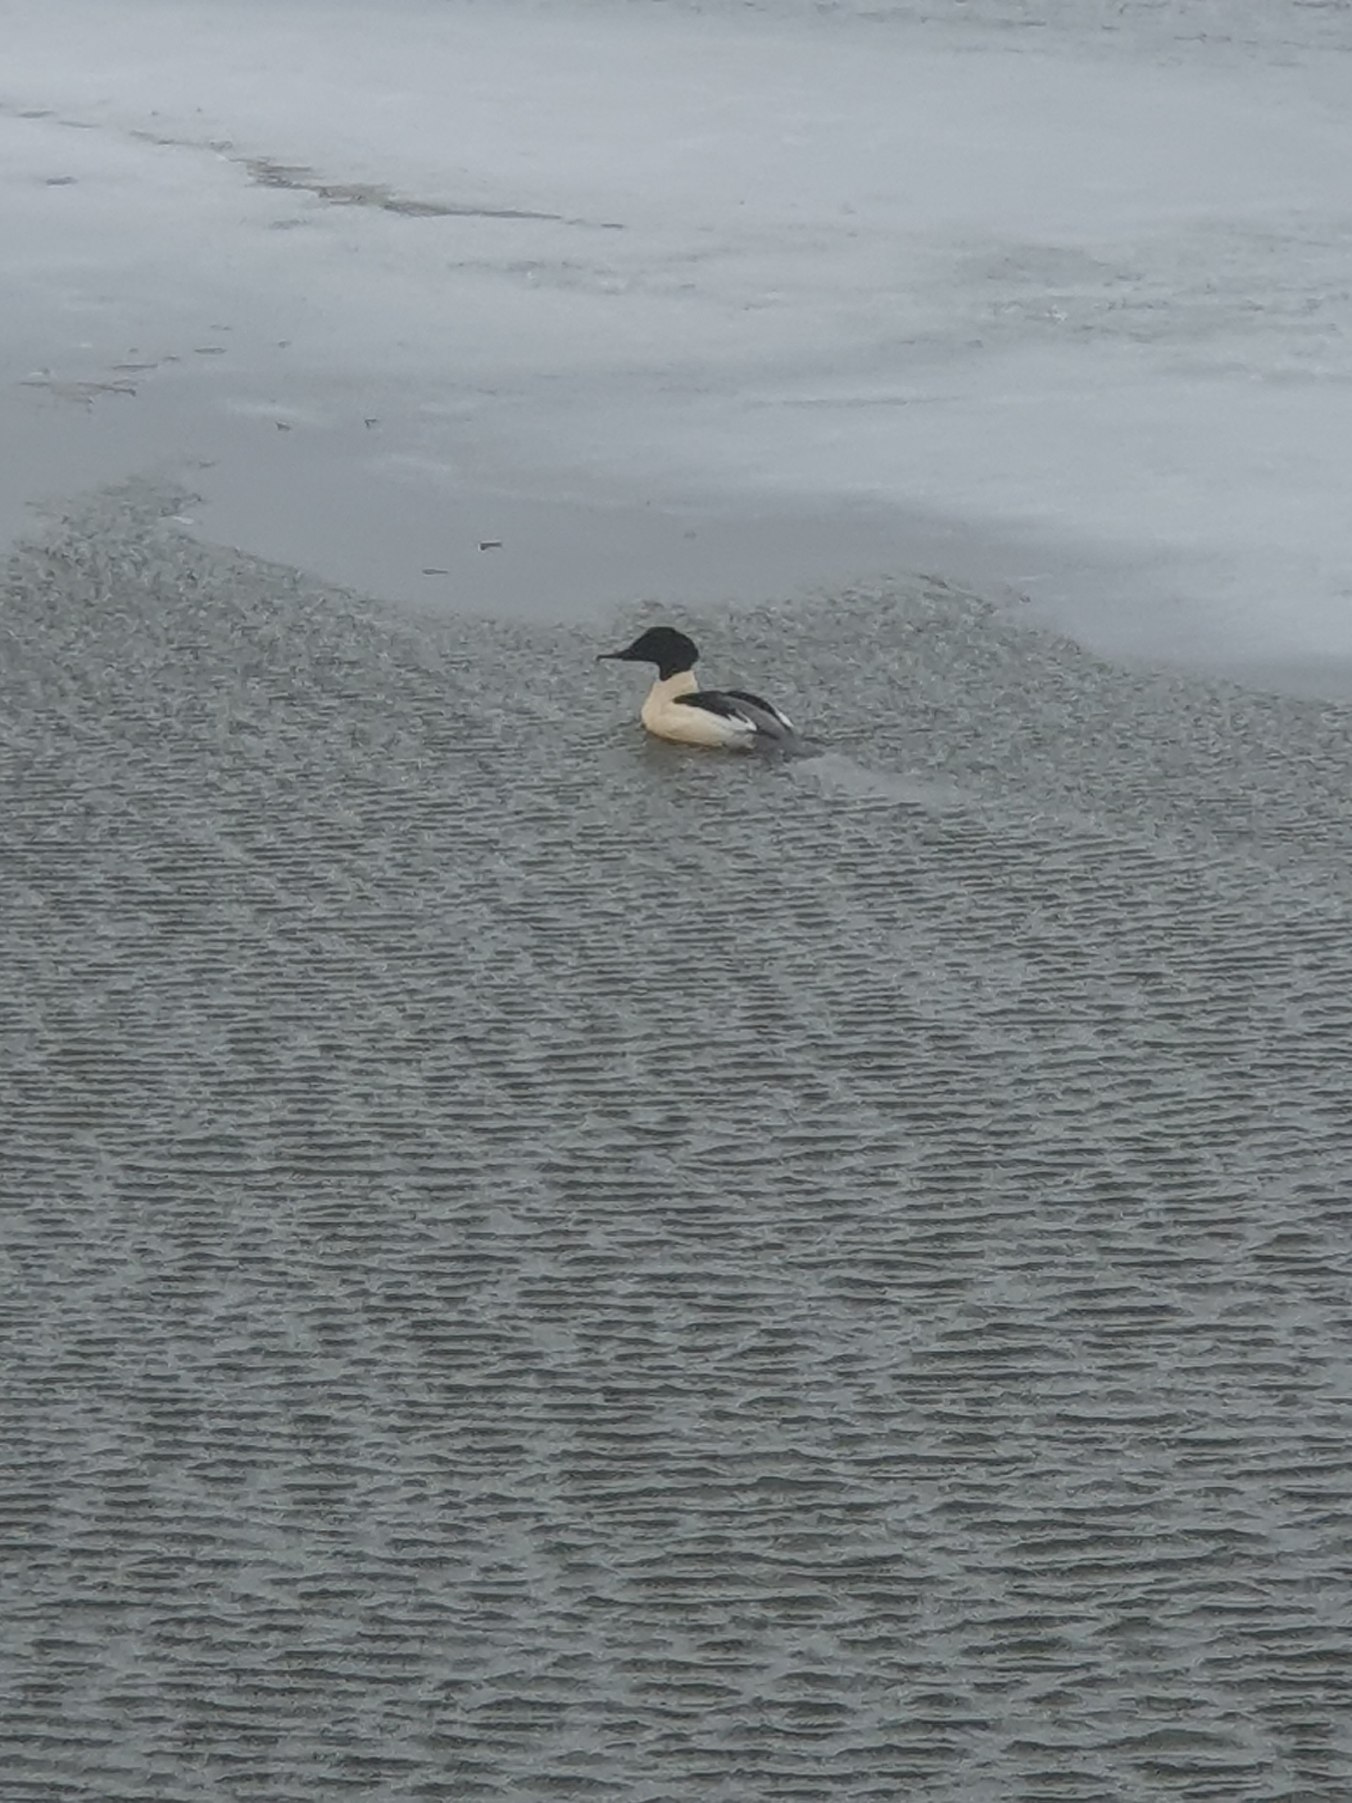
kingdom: Animalia
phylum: Chordata
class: Aves
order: Anseriformes
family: Anatidae
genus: Mergus
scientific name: Mergus merganser
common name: Stor skallesluger
